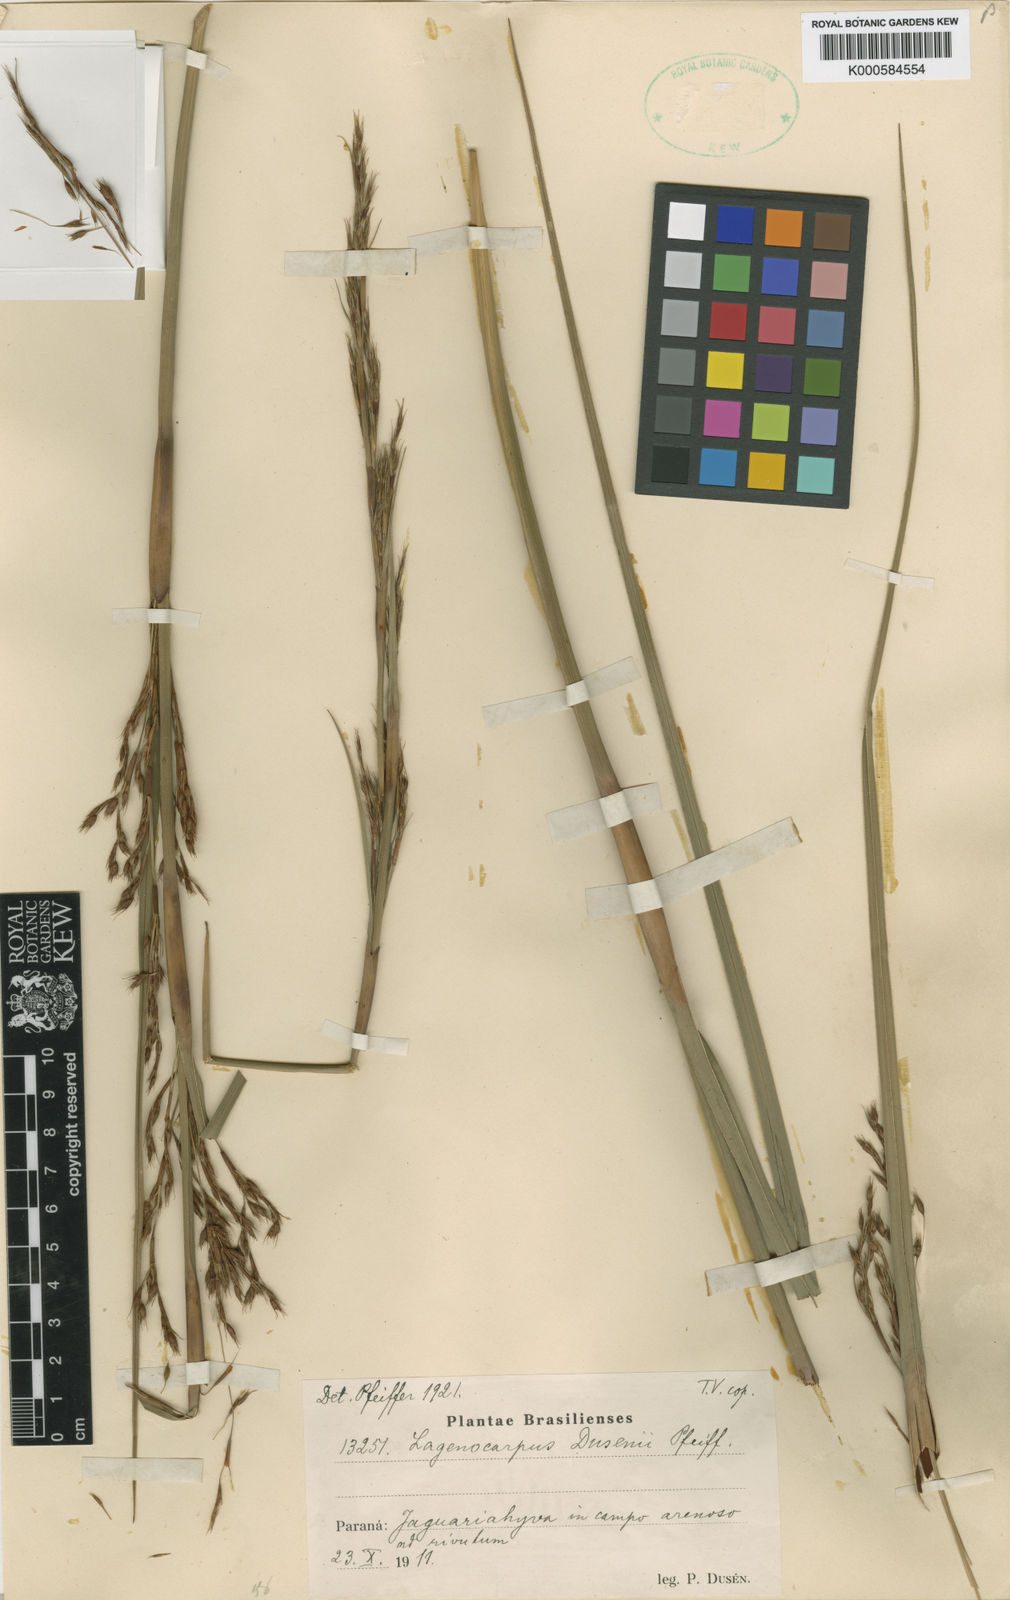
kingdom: Plantae
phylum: Tracheophyta
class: Liliopsida
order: Poales
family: Cyperaceae
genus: Lagenocarpus
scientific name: Lagenocarpus rigidus
